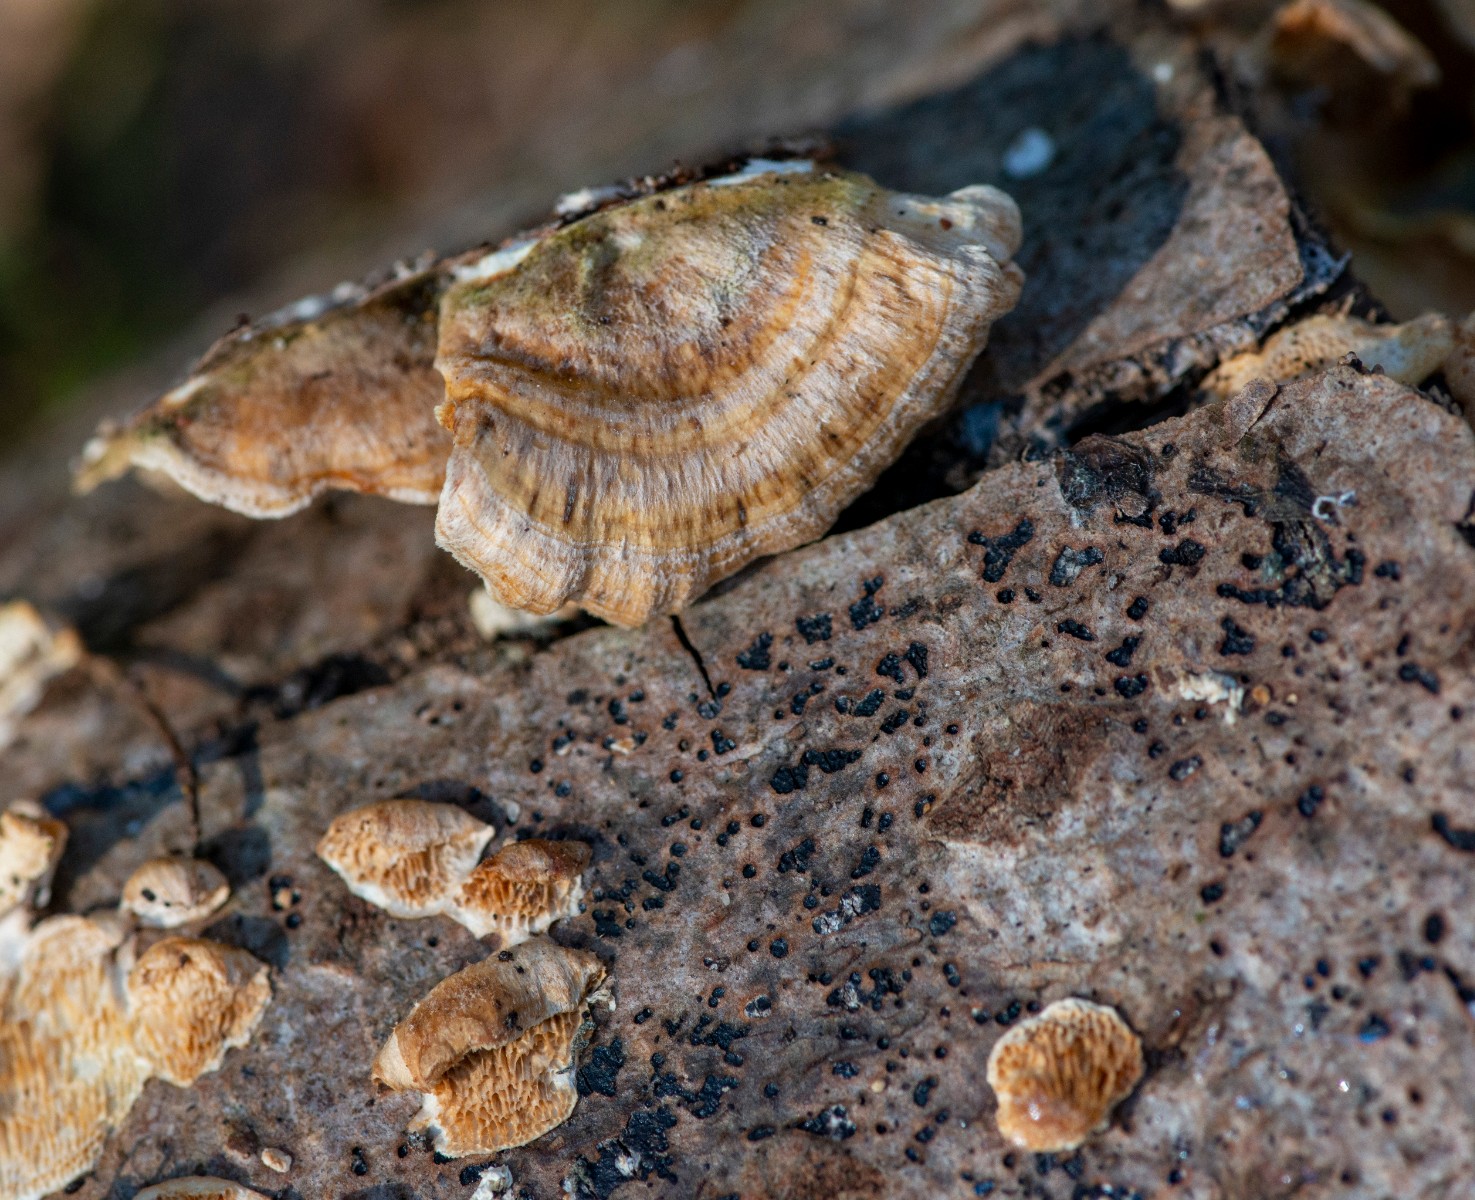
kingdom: Fungi
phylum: Basidiomycota
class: Agaricomycetes
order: Polyporales
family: Polyporaceae
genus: Trametes
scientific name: Trametes versicolor
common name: broget læderporesvamp
